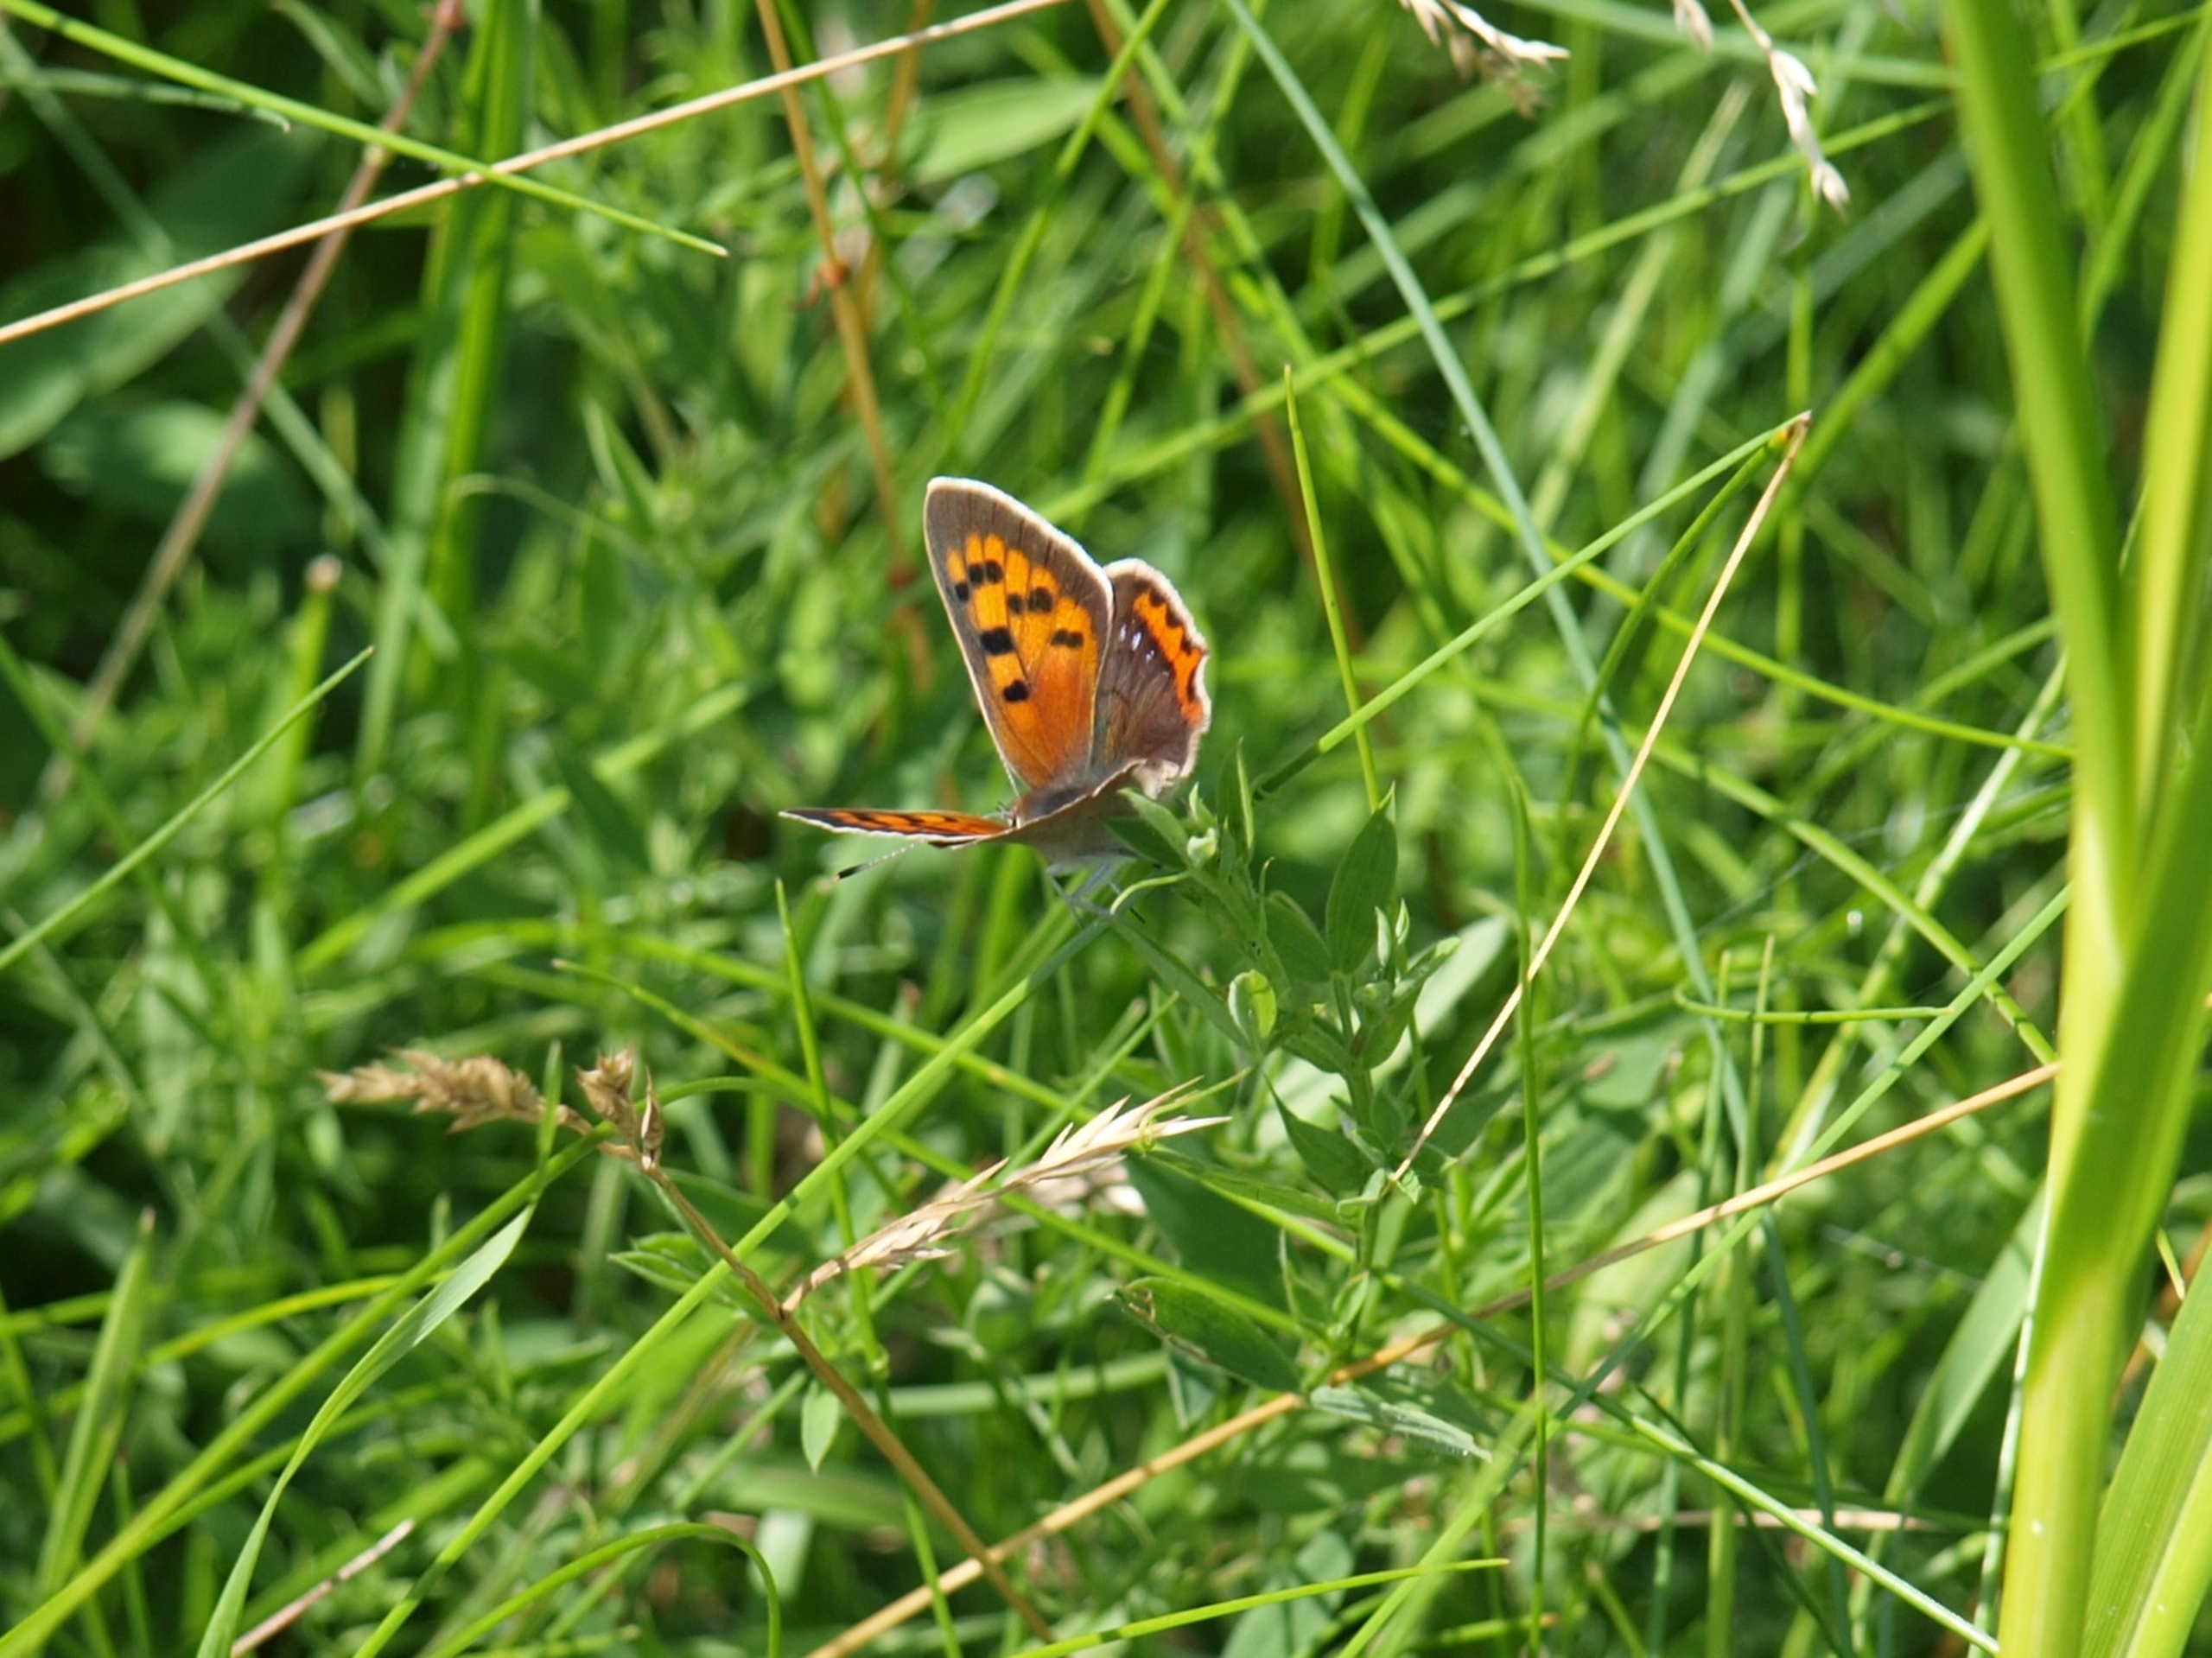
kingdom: Animalia
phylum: Arthropoda
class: Insecta
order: Lepidoptera
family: Lycaenidae
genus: Lycaena
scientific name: Lycaena phlaeas
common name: Lille ildfugl
